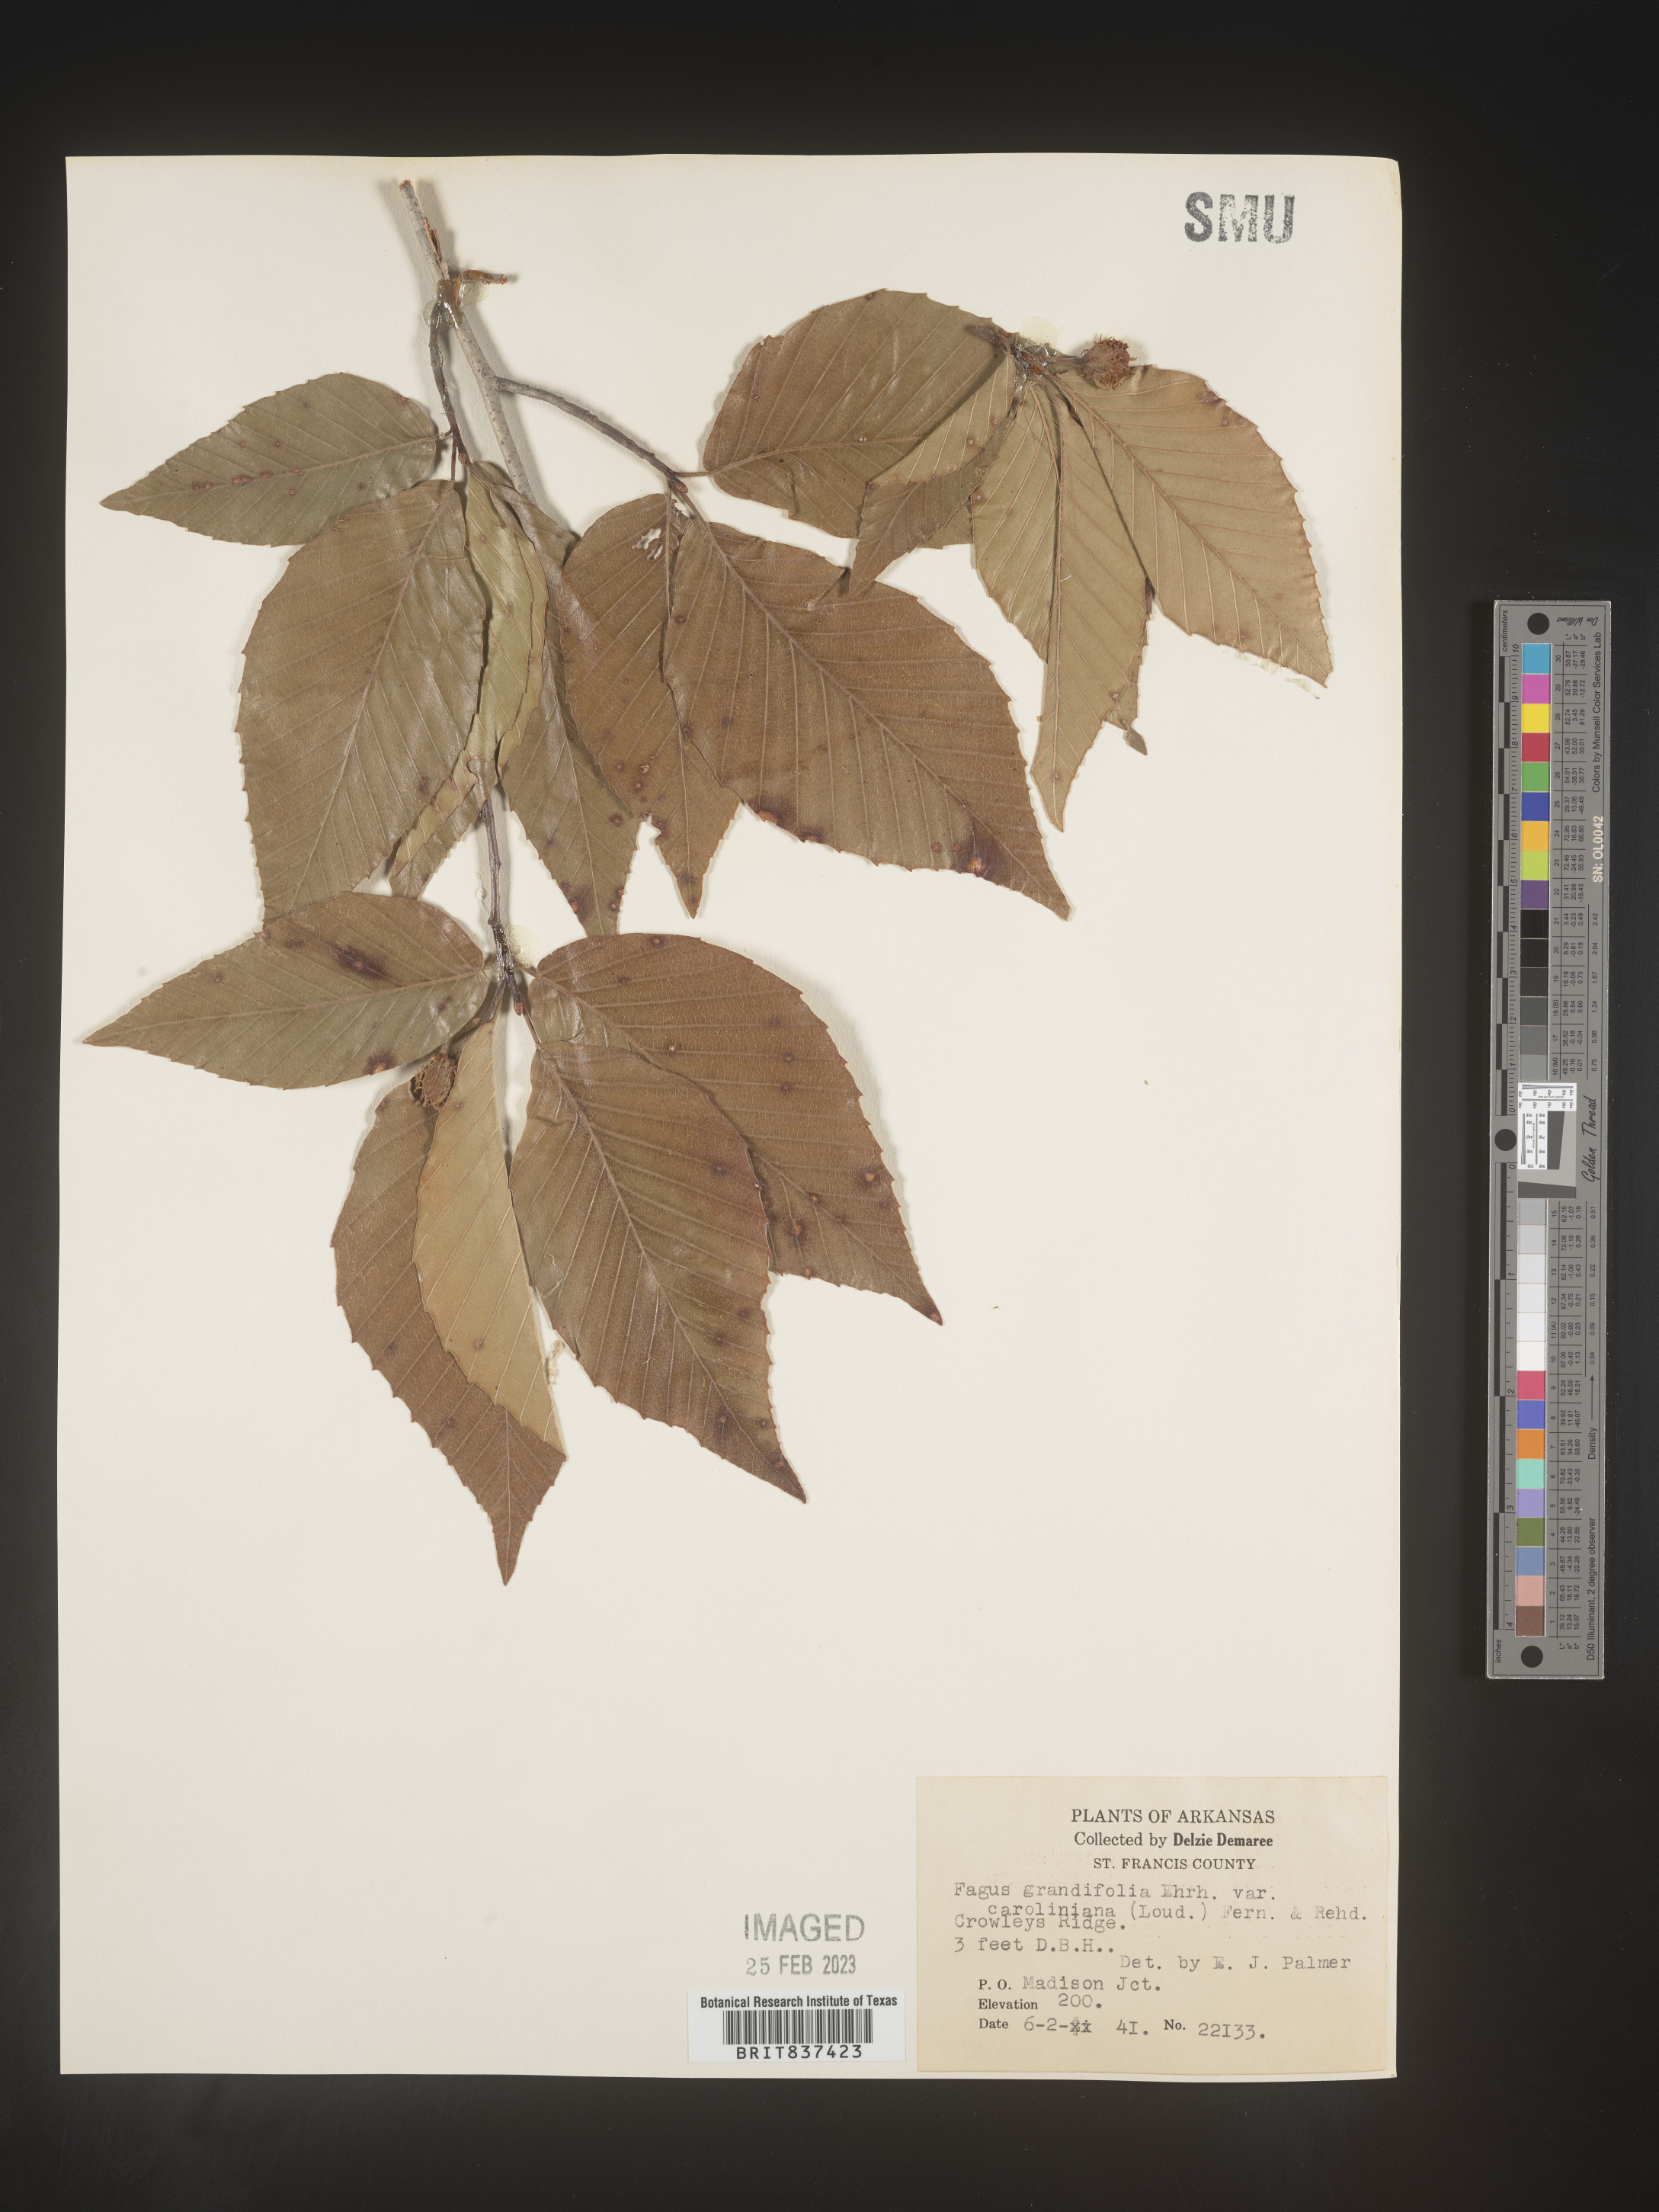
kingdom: Plantae
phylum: Tracheophyta
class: Magnoliopsida
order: Fagales
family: Fagaceae
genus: Fagus
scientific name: Fagus grandifolia
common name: American beech
